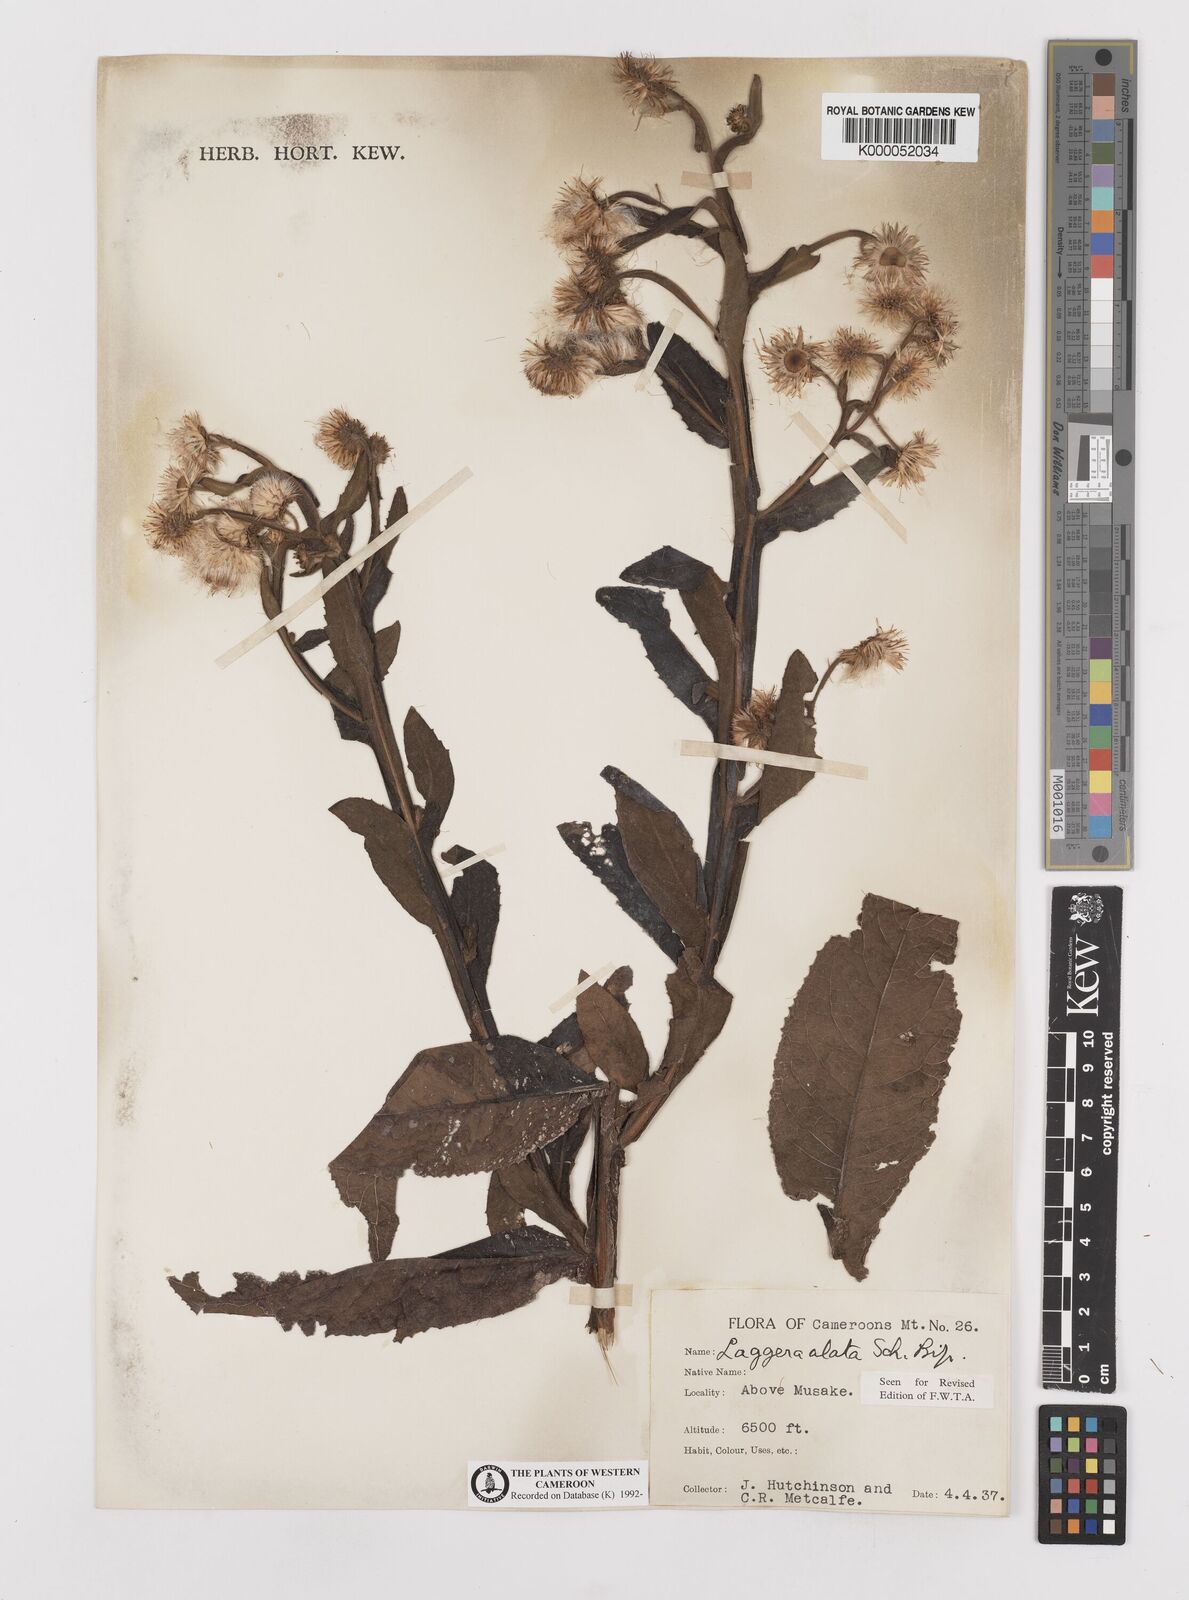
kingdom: Plantae
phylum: Tracheophyta
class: Magnoliopsida
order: Asterales
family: Asteraceae
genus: Laggera
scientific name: Laggera crispata
